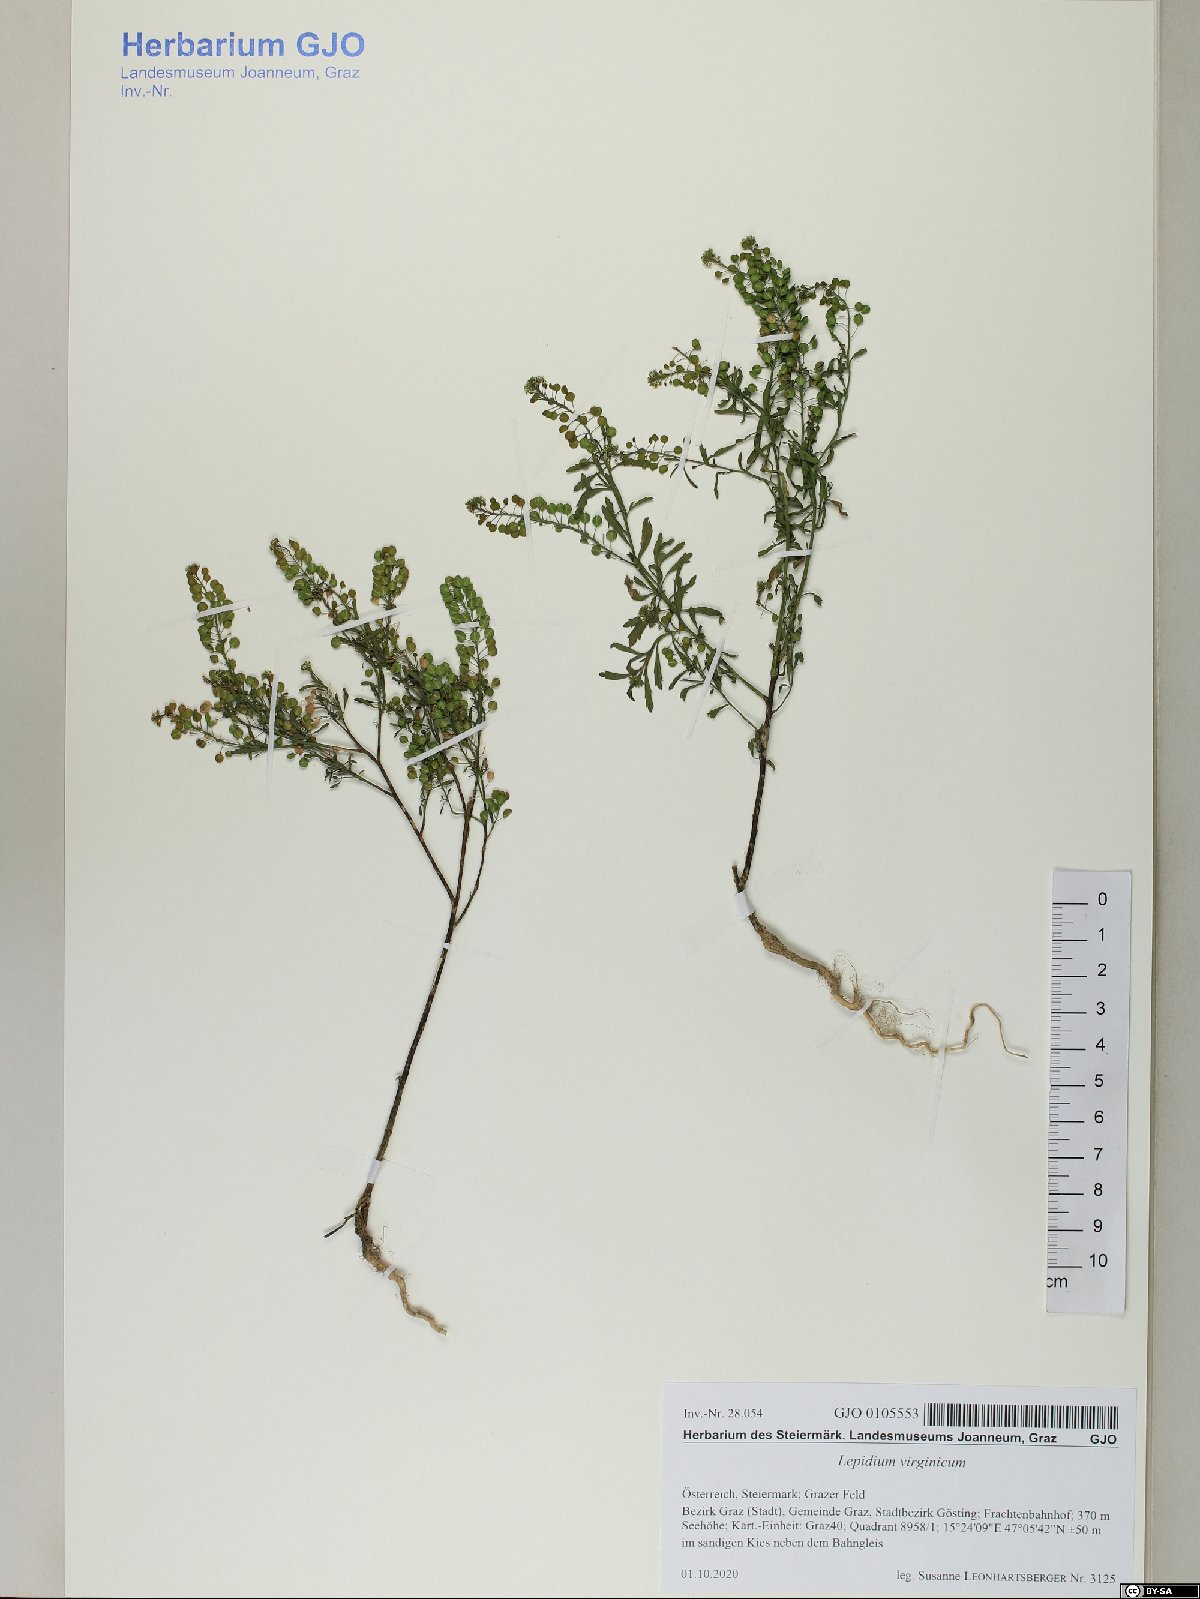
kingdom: Plantae
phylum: Tracheophyta
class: Magnoliopsida
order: Brassicales
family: Brassicaceae
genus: Lepidium
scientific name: Lepidium virginicum
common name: Least pepperwort
